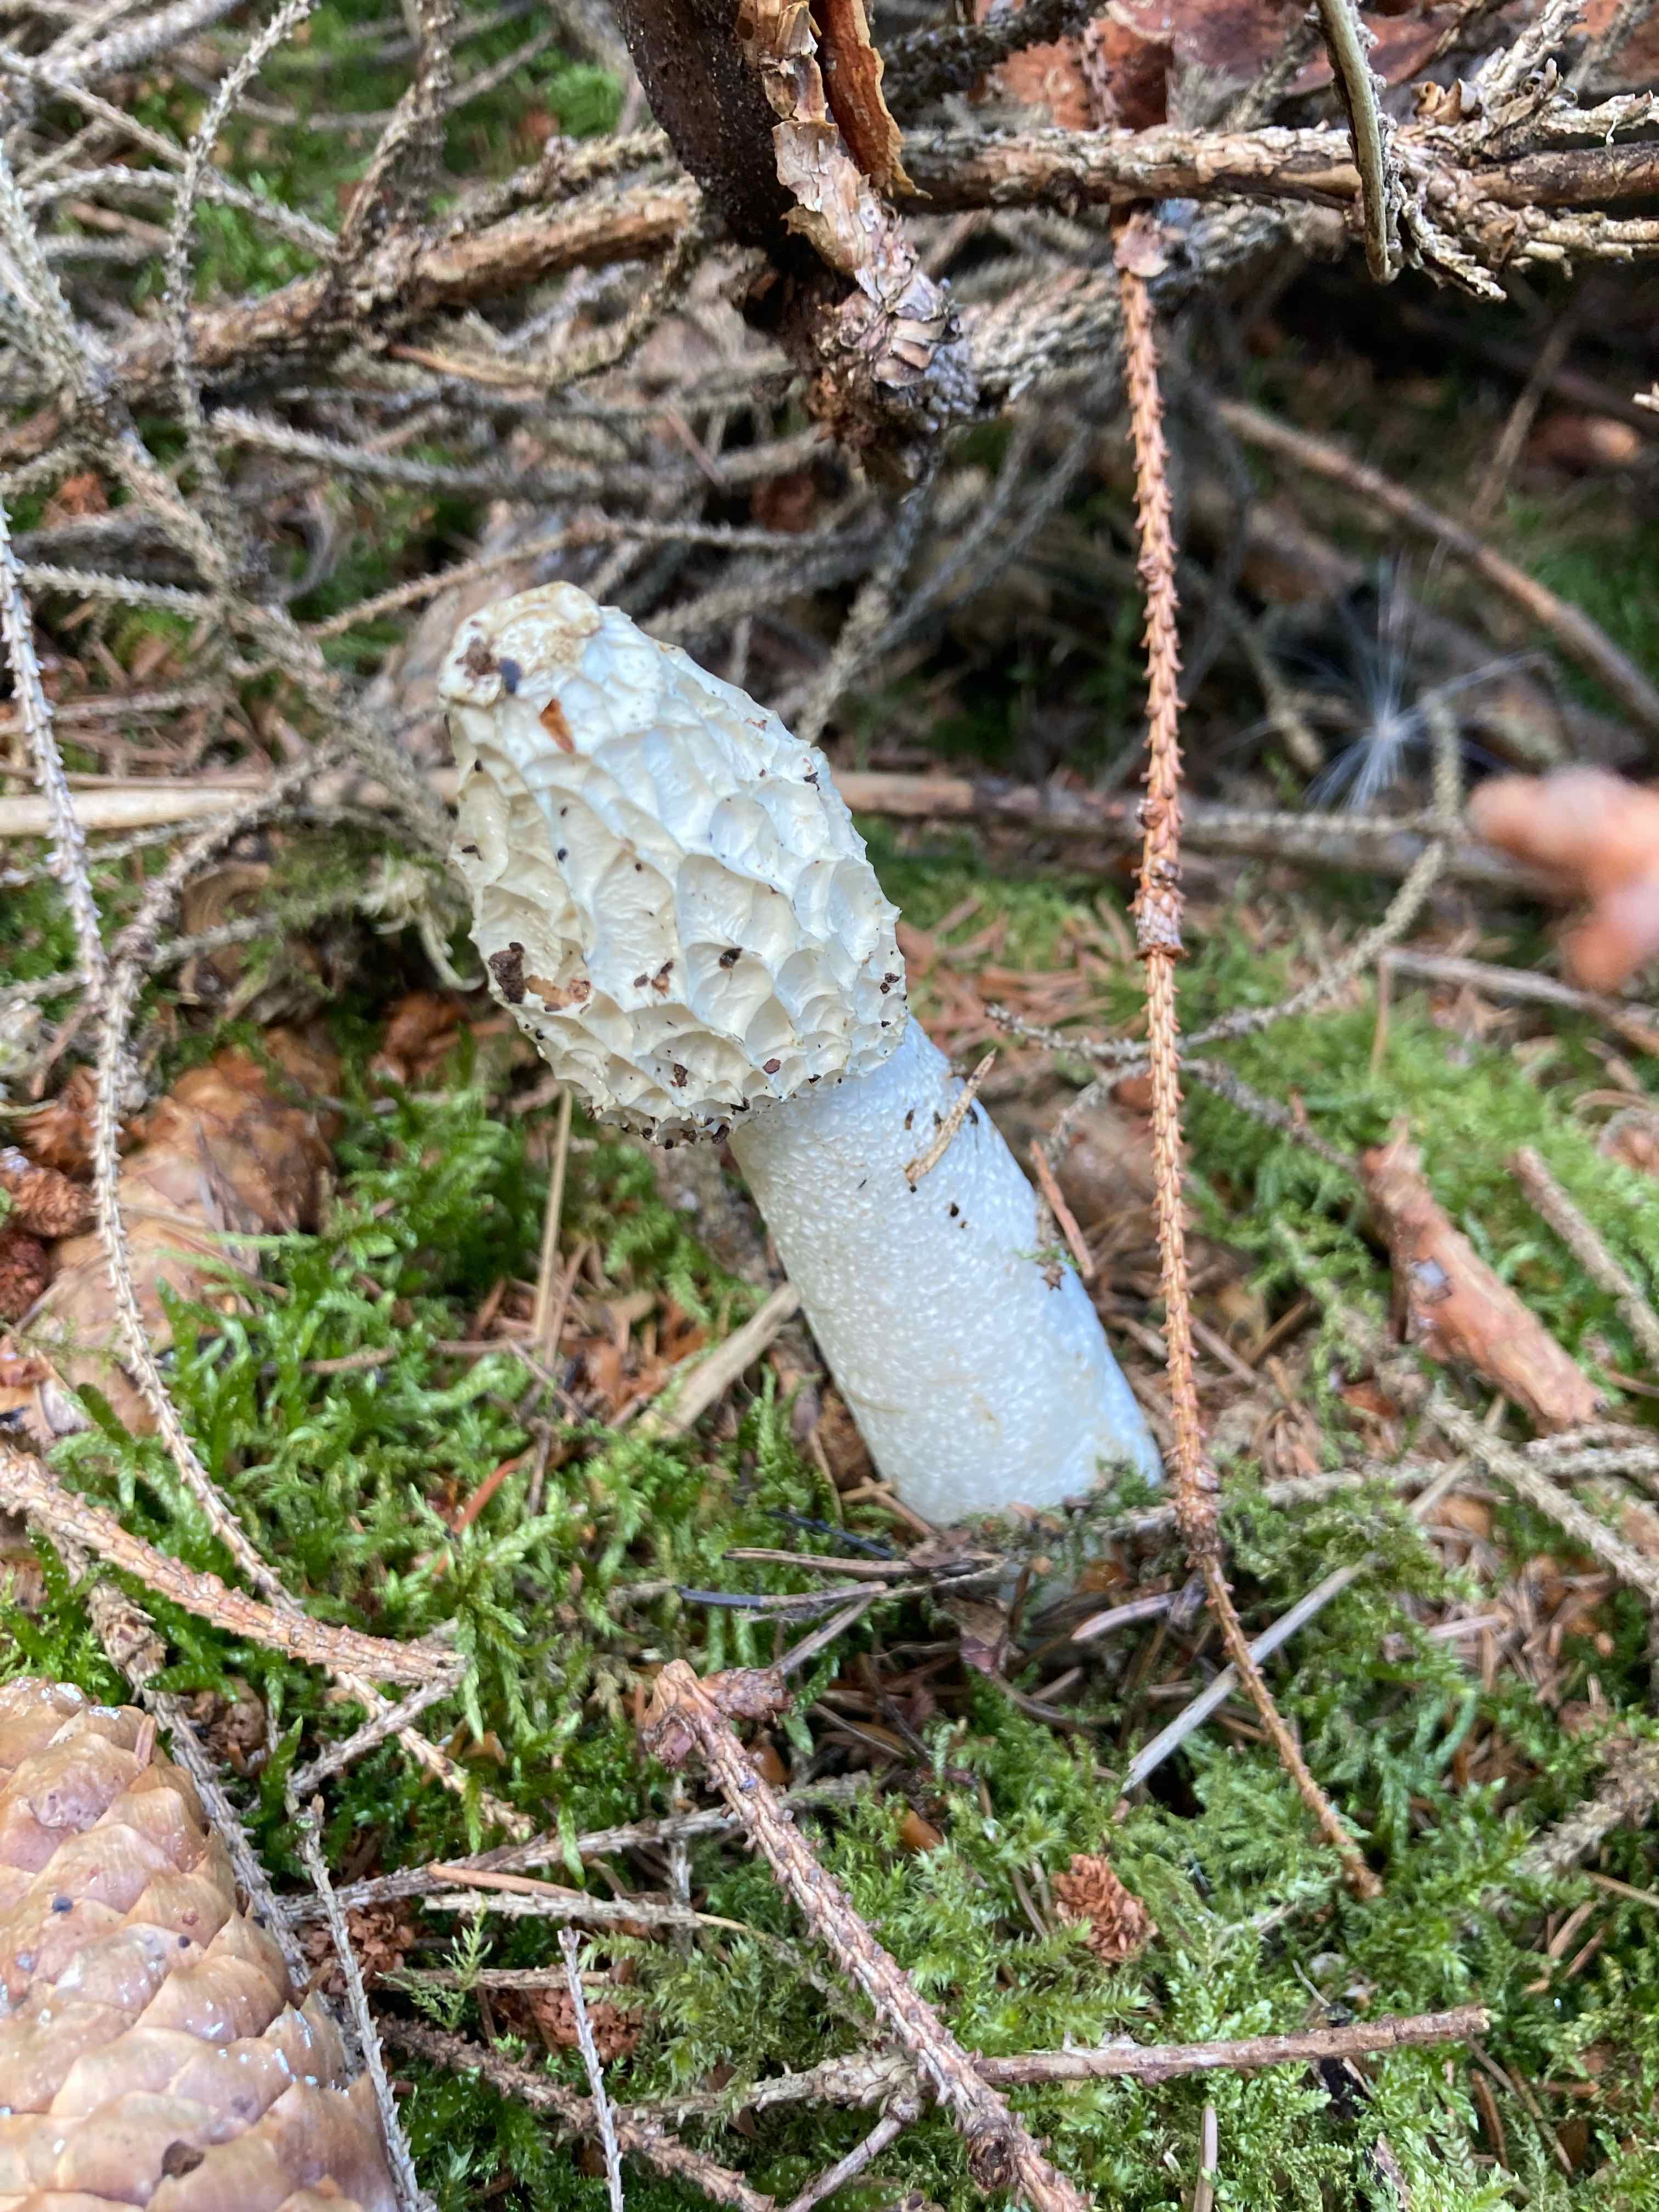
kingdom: Fungi
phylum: Basidiomycota
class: Agaricomycetes
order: Phallales
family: Phallaceae
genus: Phallus
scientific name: Phallus impudicus
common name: almindelig stinksvamp
